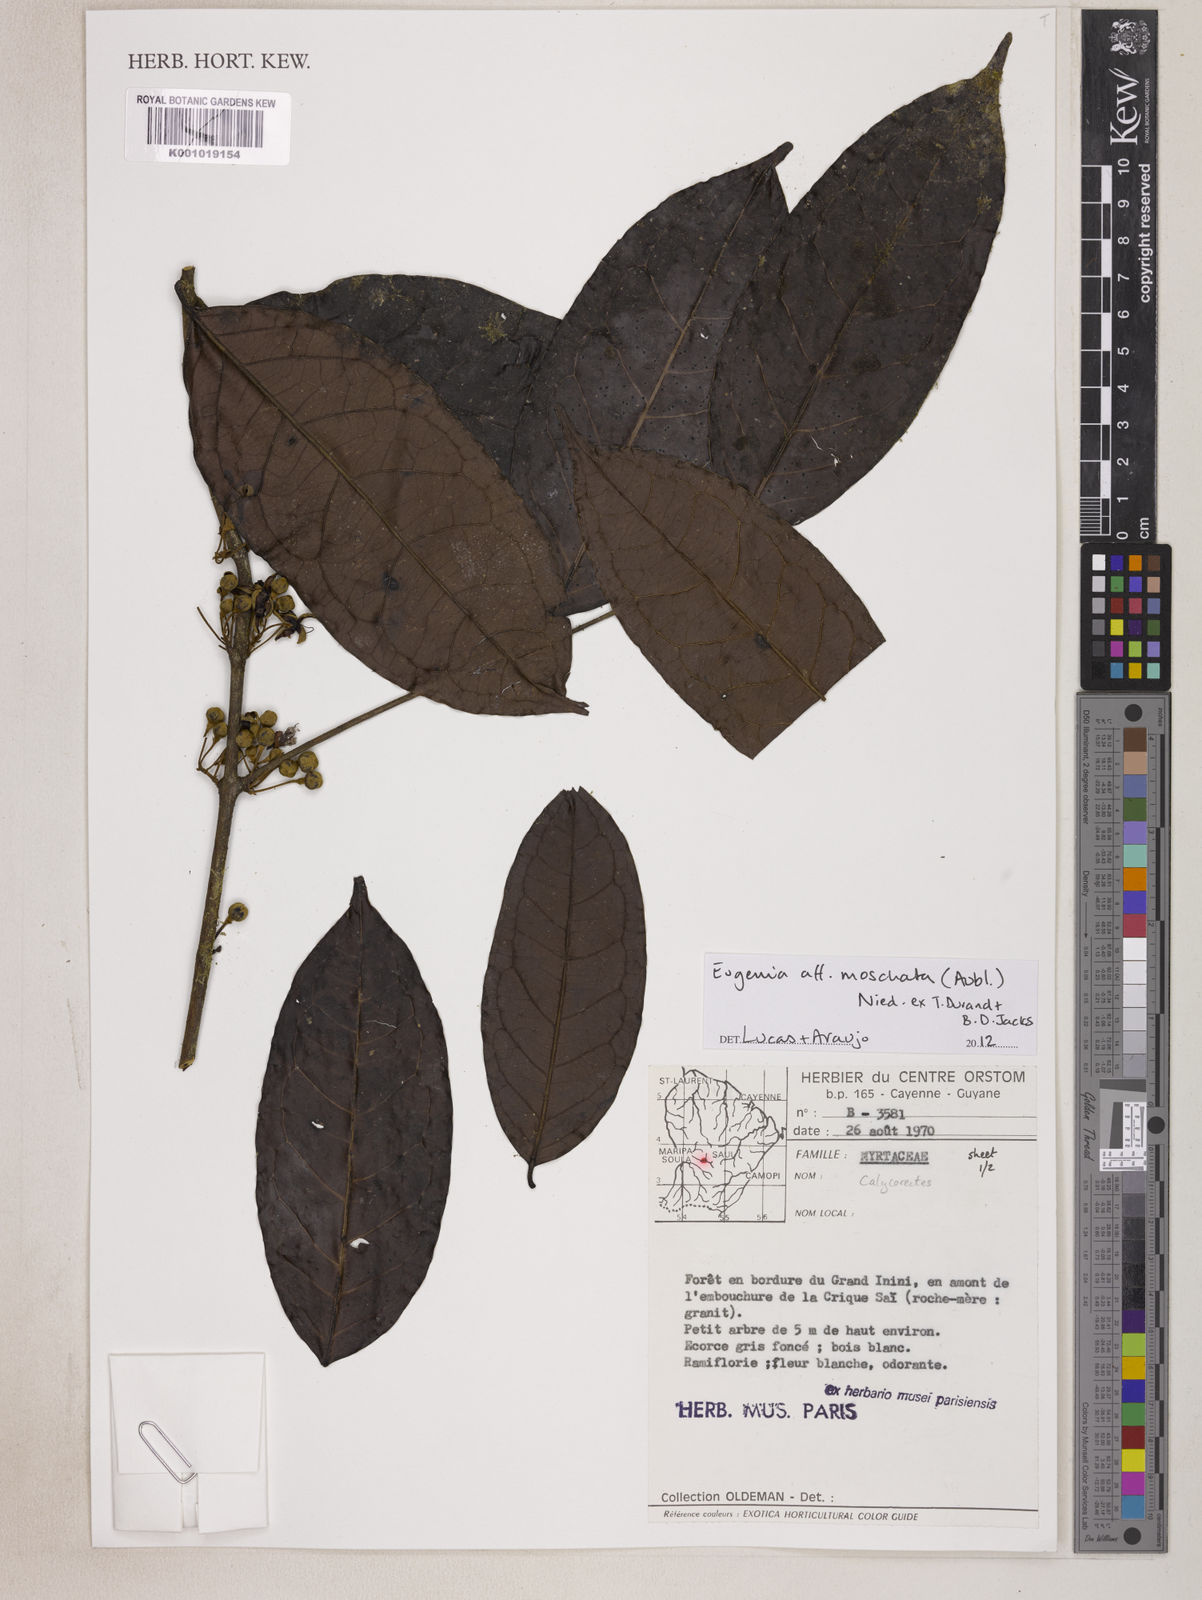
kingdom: Plantae
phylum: Tracheophyta
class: Magnoliopsida
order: Myrtales
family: Myrtaceae
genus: Eugenia
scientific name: Eugenia moschata
